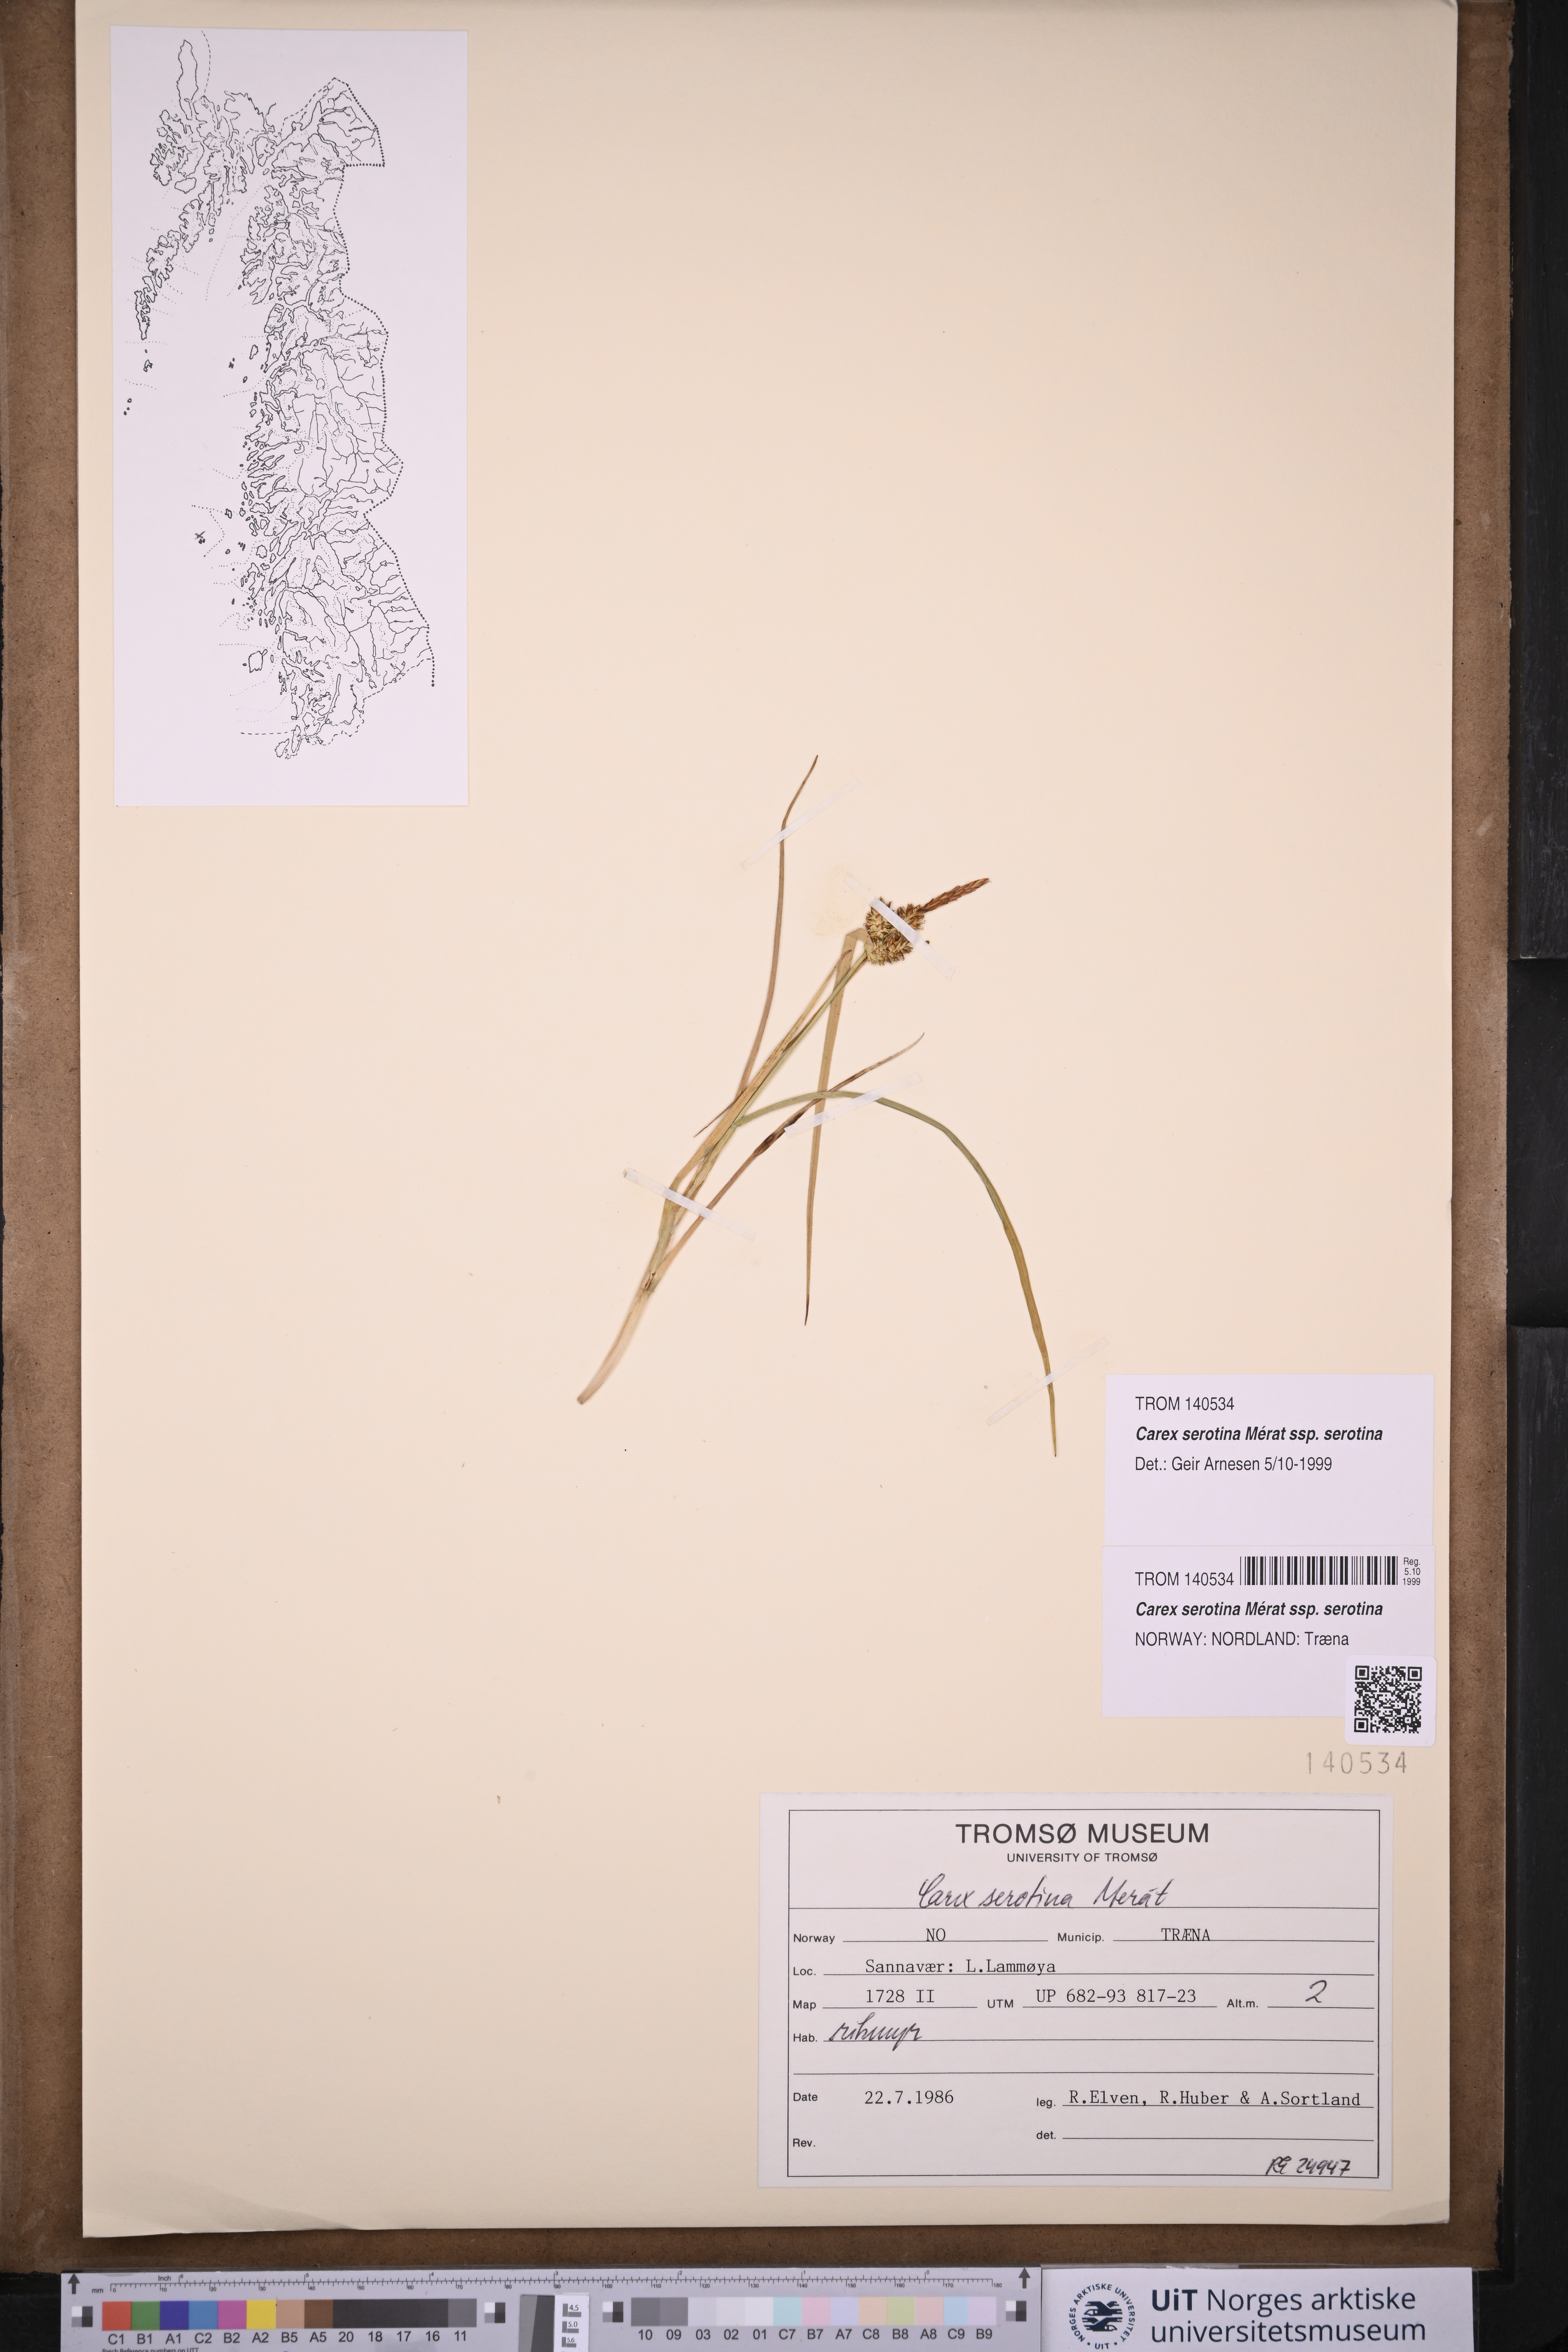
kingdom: Plantae
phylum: Tracheophyta
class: Liliopsida
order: Poales
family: Cyperaceae
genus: Carex
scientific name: Carex oederi
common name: Common & small-fruited yellow-sedge
